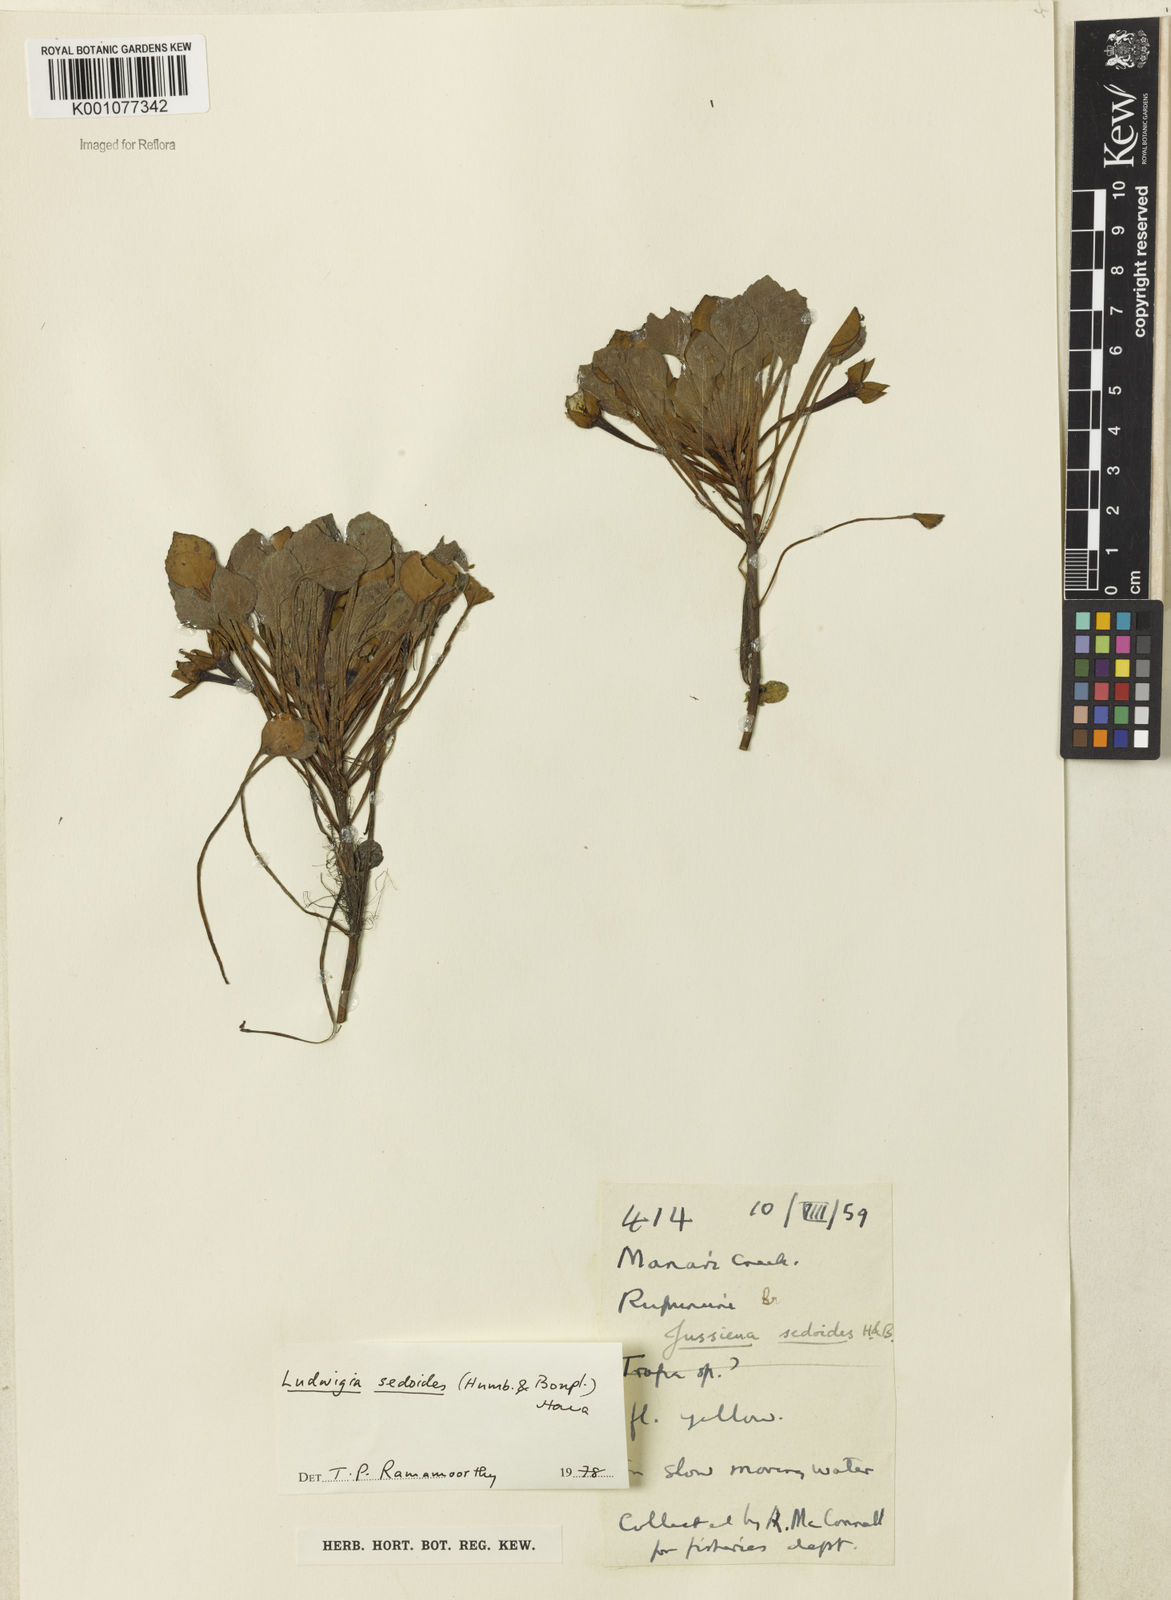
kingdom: Plantae
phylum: Tracheophyta
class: Magnoliopsida
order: Myrtales
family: Onagraceae
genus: Ludwigia
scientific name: Ludwigia sedoides
